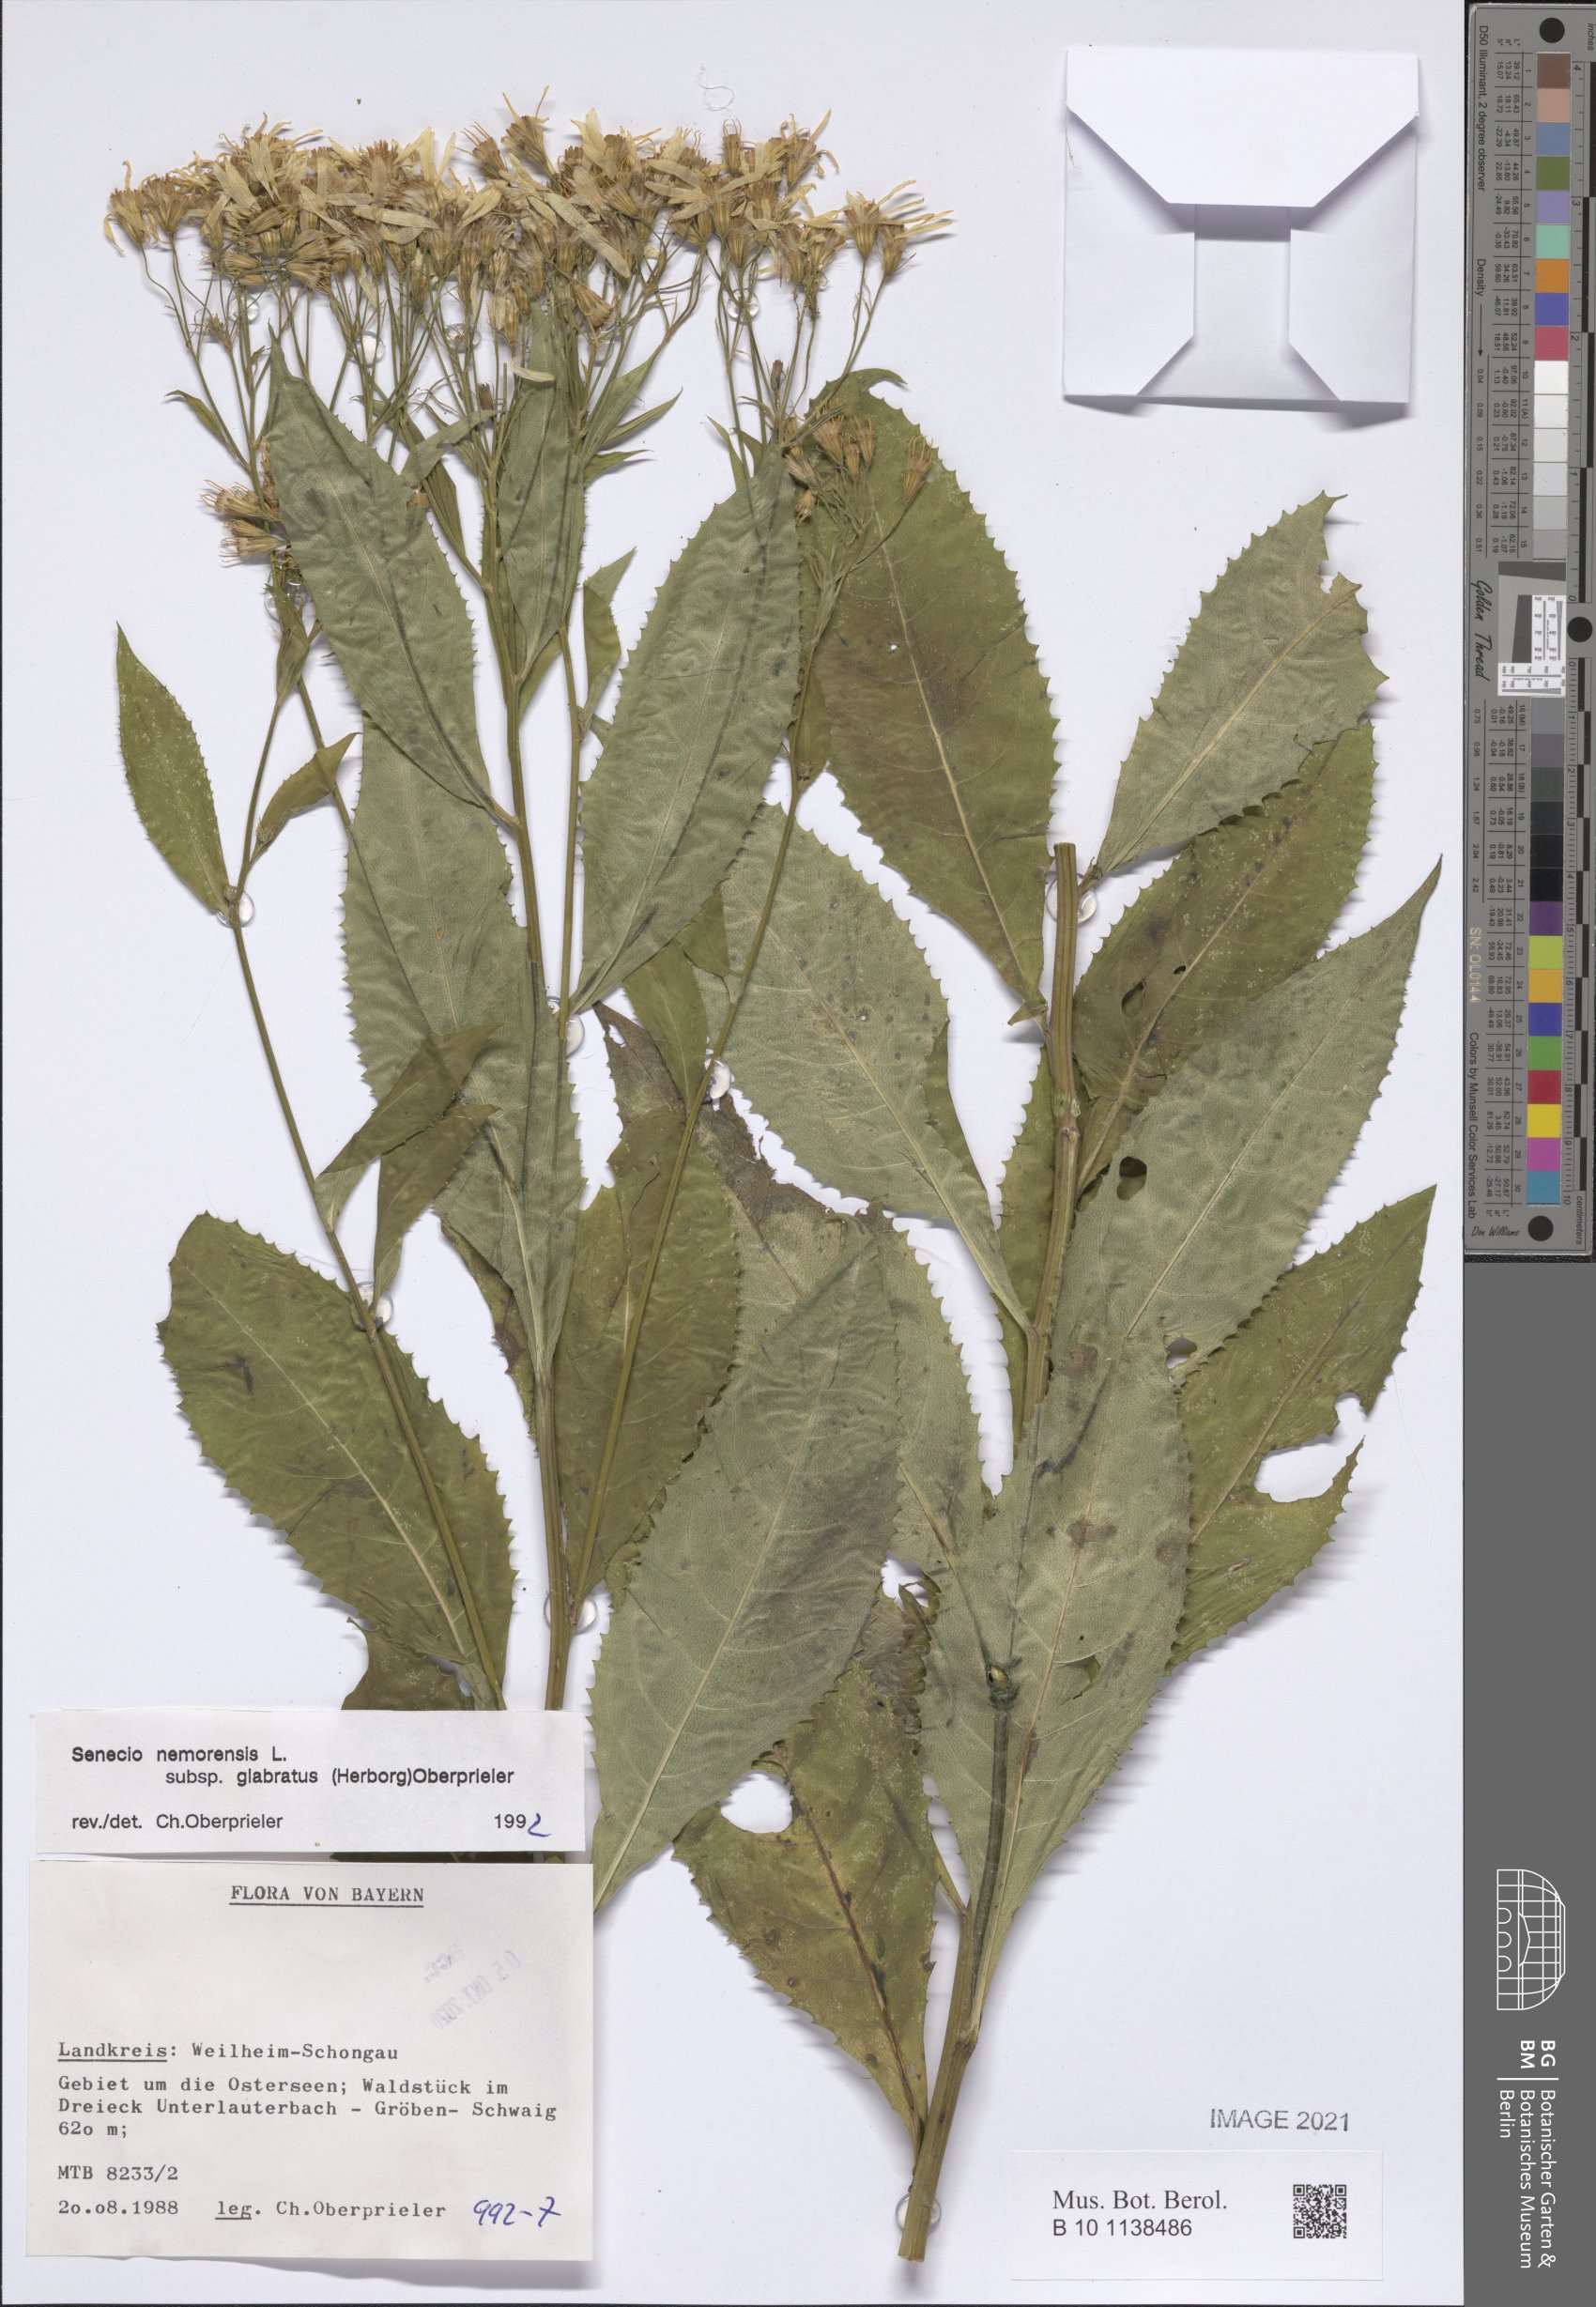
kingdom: Plantae
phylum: Tracheophyta
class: Magnoliopsida
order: Asterales
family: Asteraceae
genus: Senecio
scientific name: Senecio germanicus
